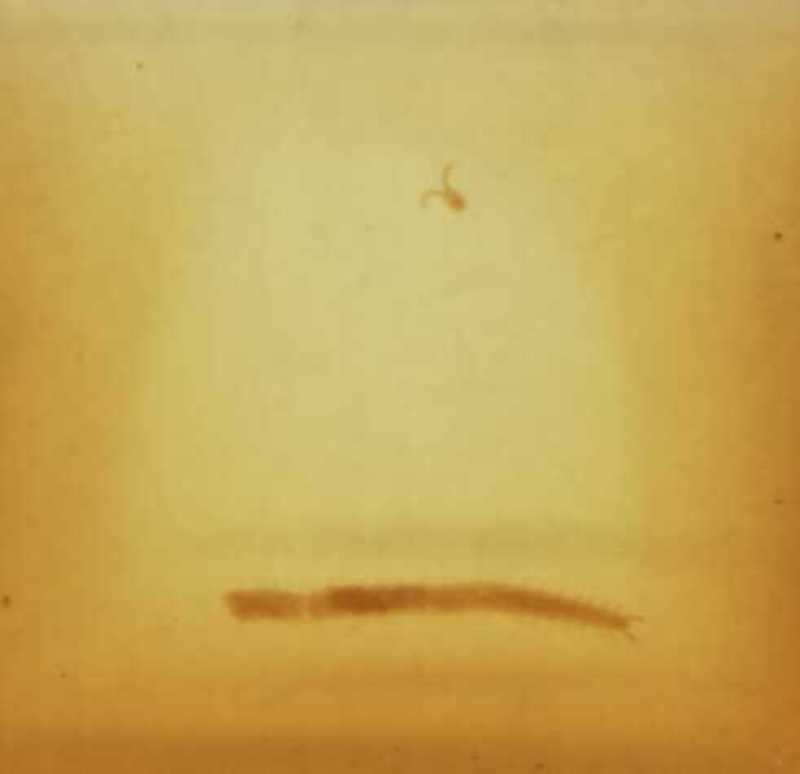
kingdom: Animalia
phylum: Arthropoda
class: Chilopoda
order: Geophilomorpha
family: Geophilidae
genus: Stenotaenia
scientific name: Stenotaenia romana
